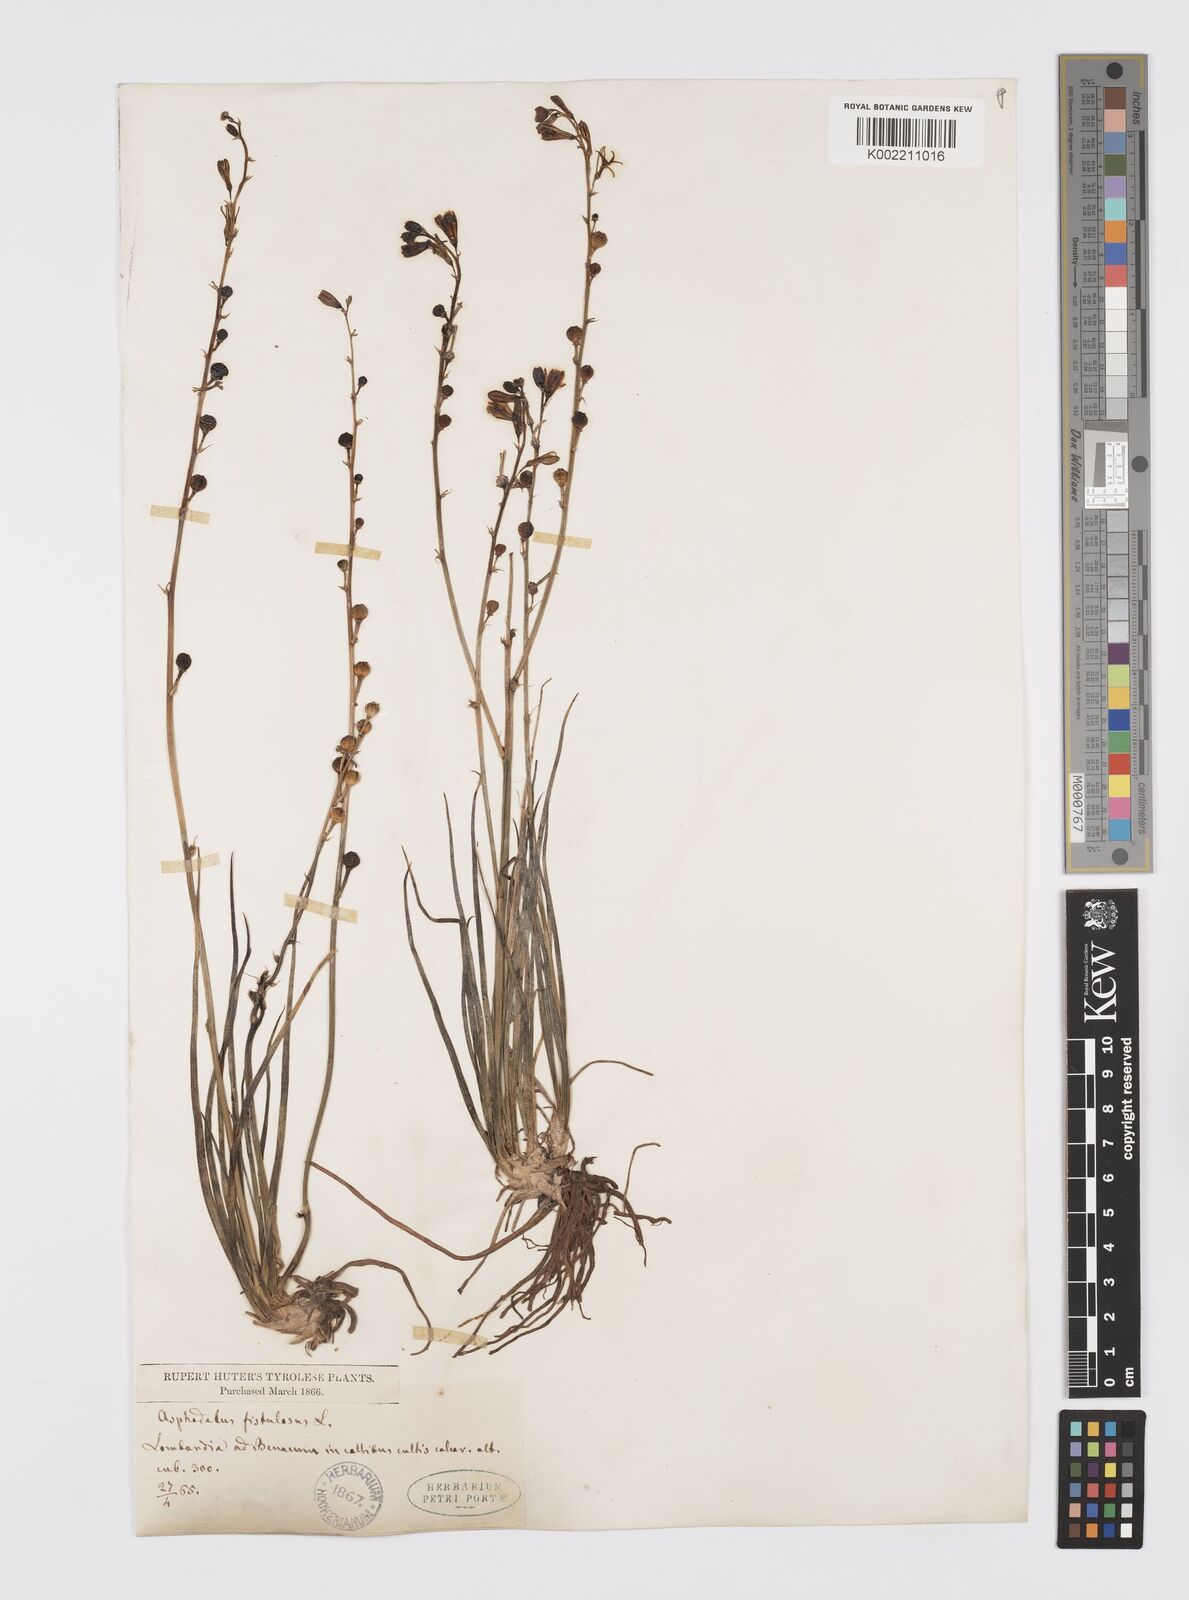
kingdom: Plantae
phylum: Tracheophyta
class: Liliopsida
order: Asparagales
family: Asphodelaceae
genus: Asphodelus
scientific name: Asphodelus fistulosus
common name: Onionweed
